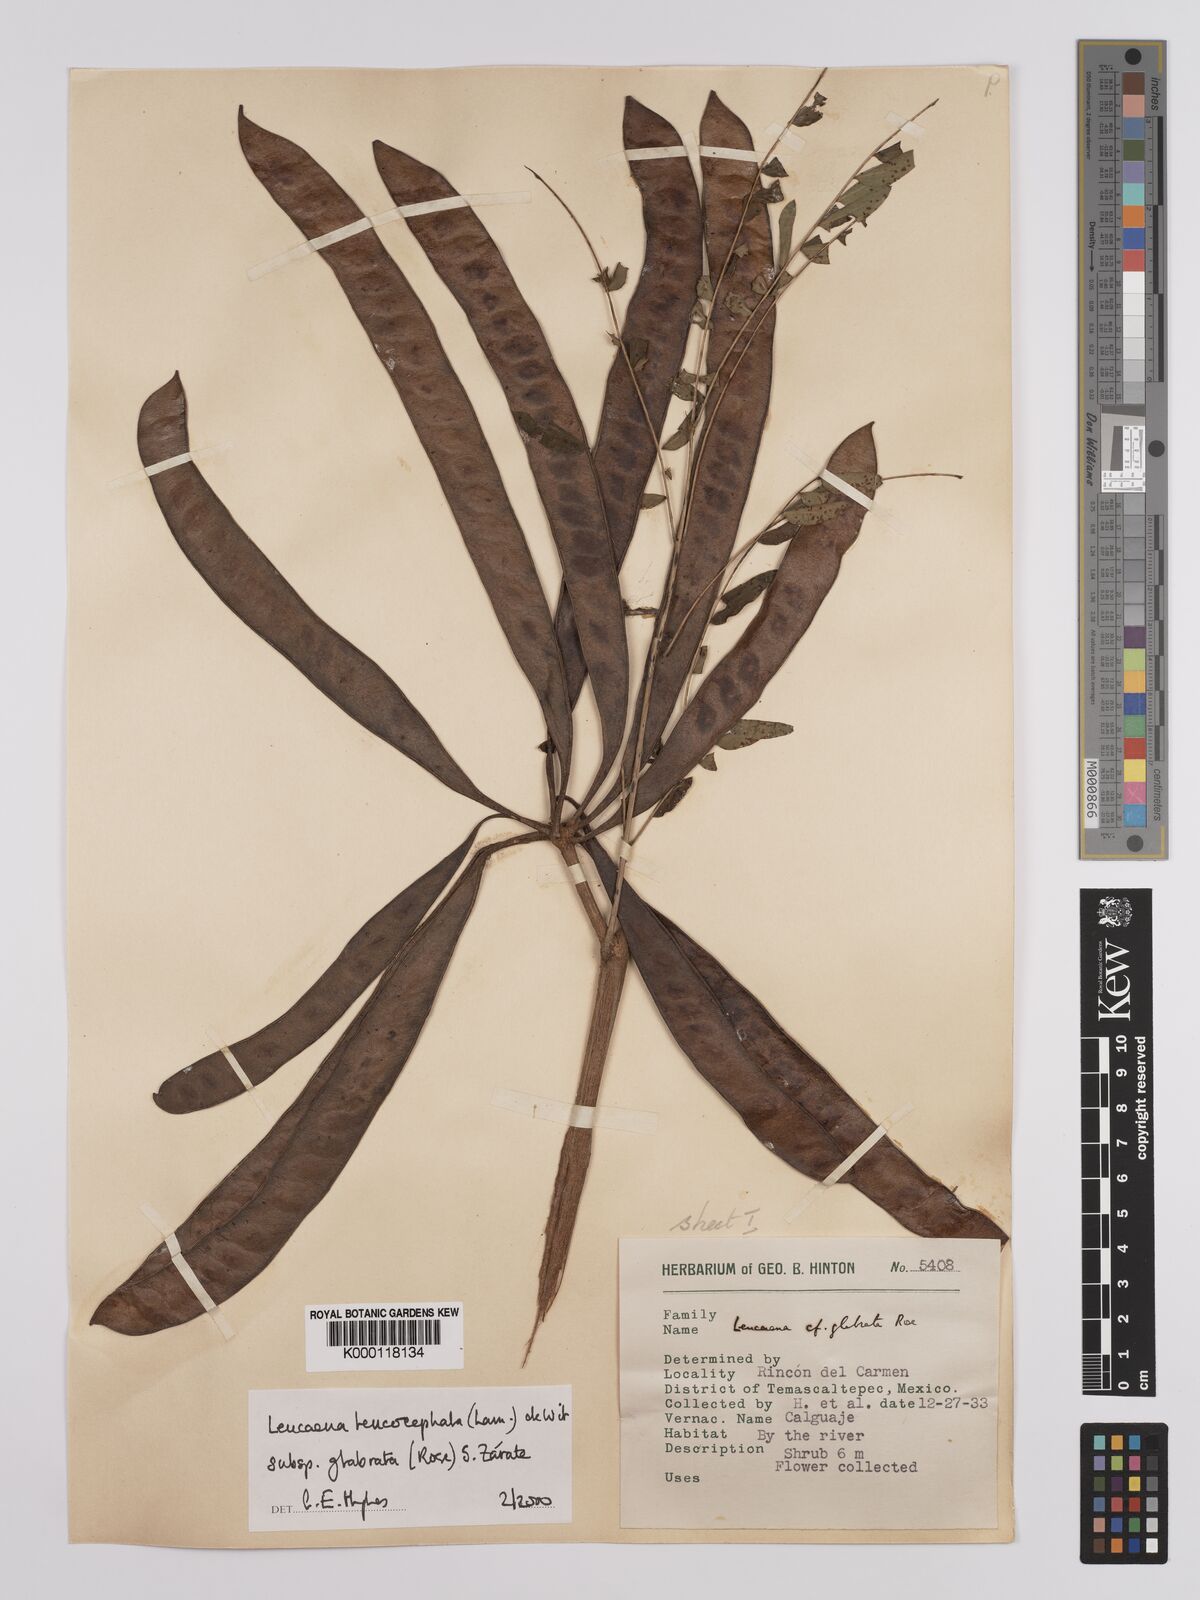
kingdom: Plantae
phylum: Tracheophyta
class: Magnoliopsida
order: Fabales
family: Fabaceae
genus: Leucaena
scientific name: Leucaena leucocephala
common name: White leadtree
